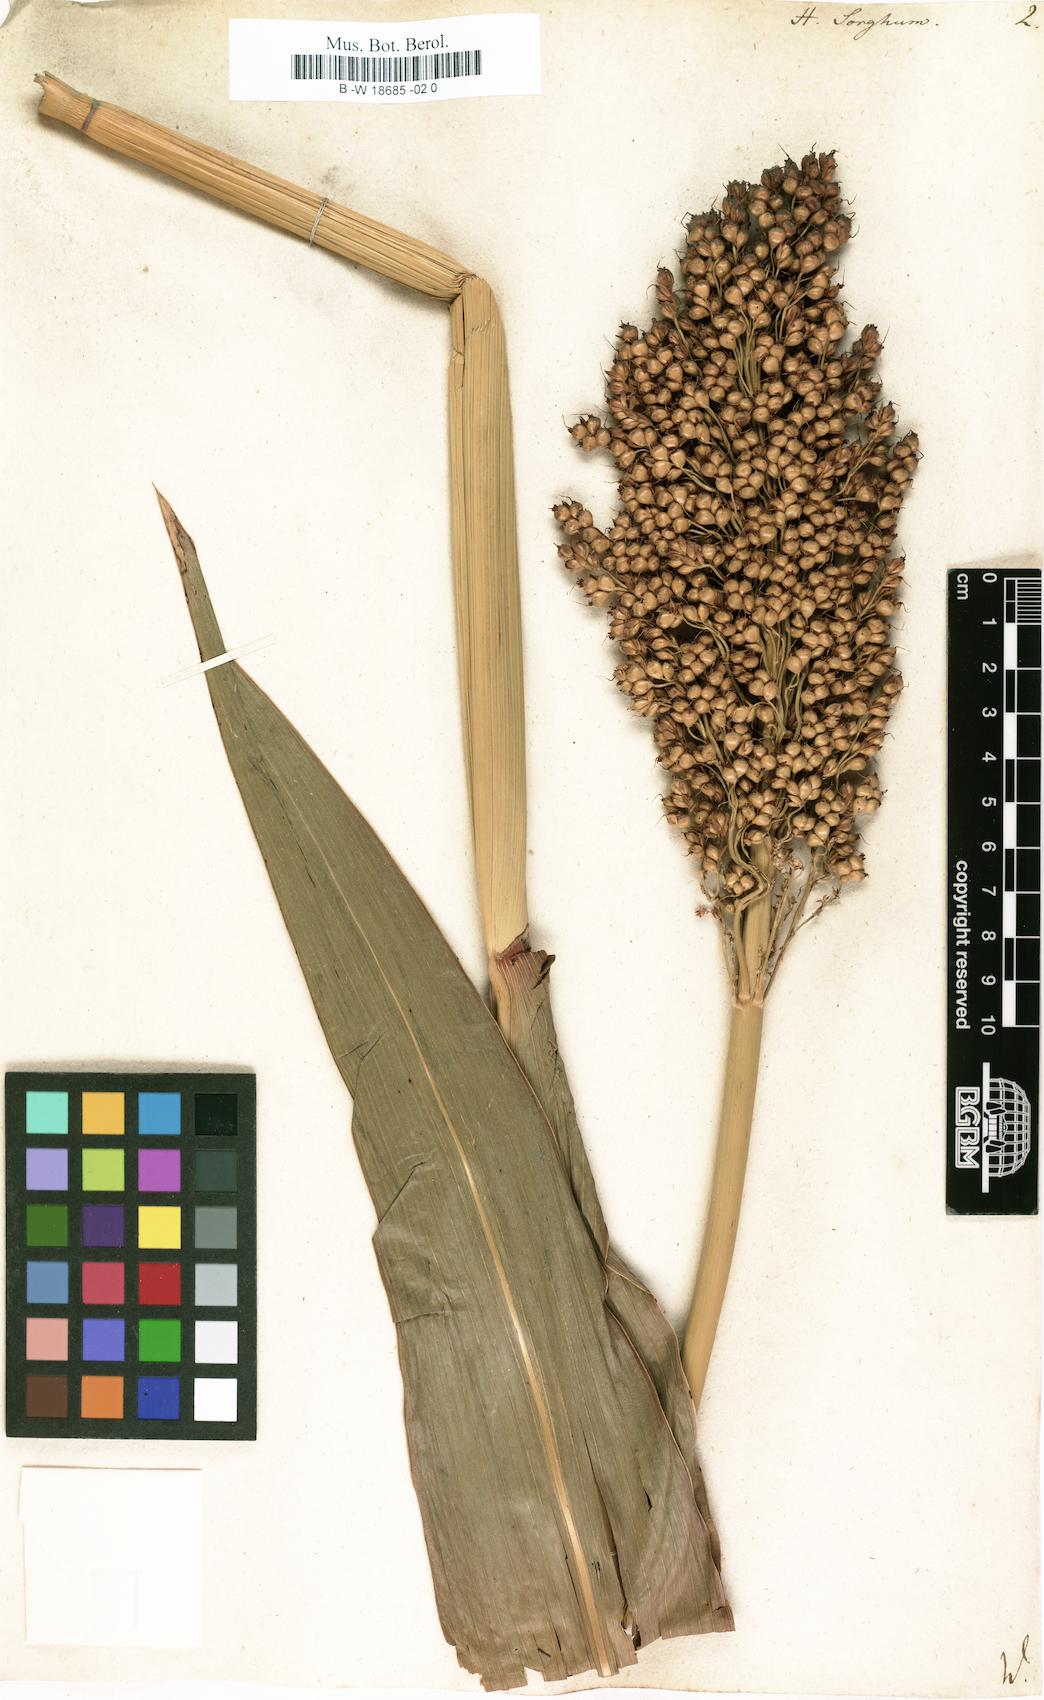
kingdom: Plantae
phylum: Tracheophyta
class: Liliopsida
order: Poales
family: Poaceae
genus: Sorghum
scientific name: Sorghum bicolor
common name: Sorghum
